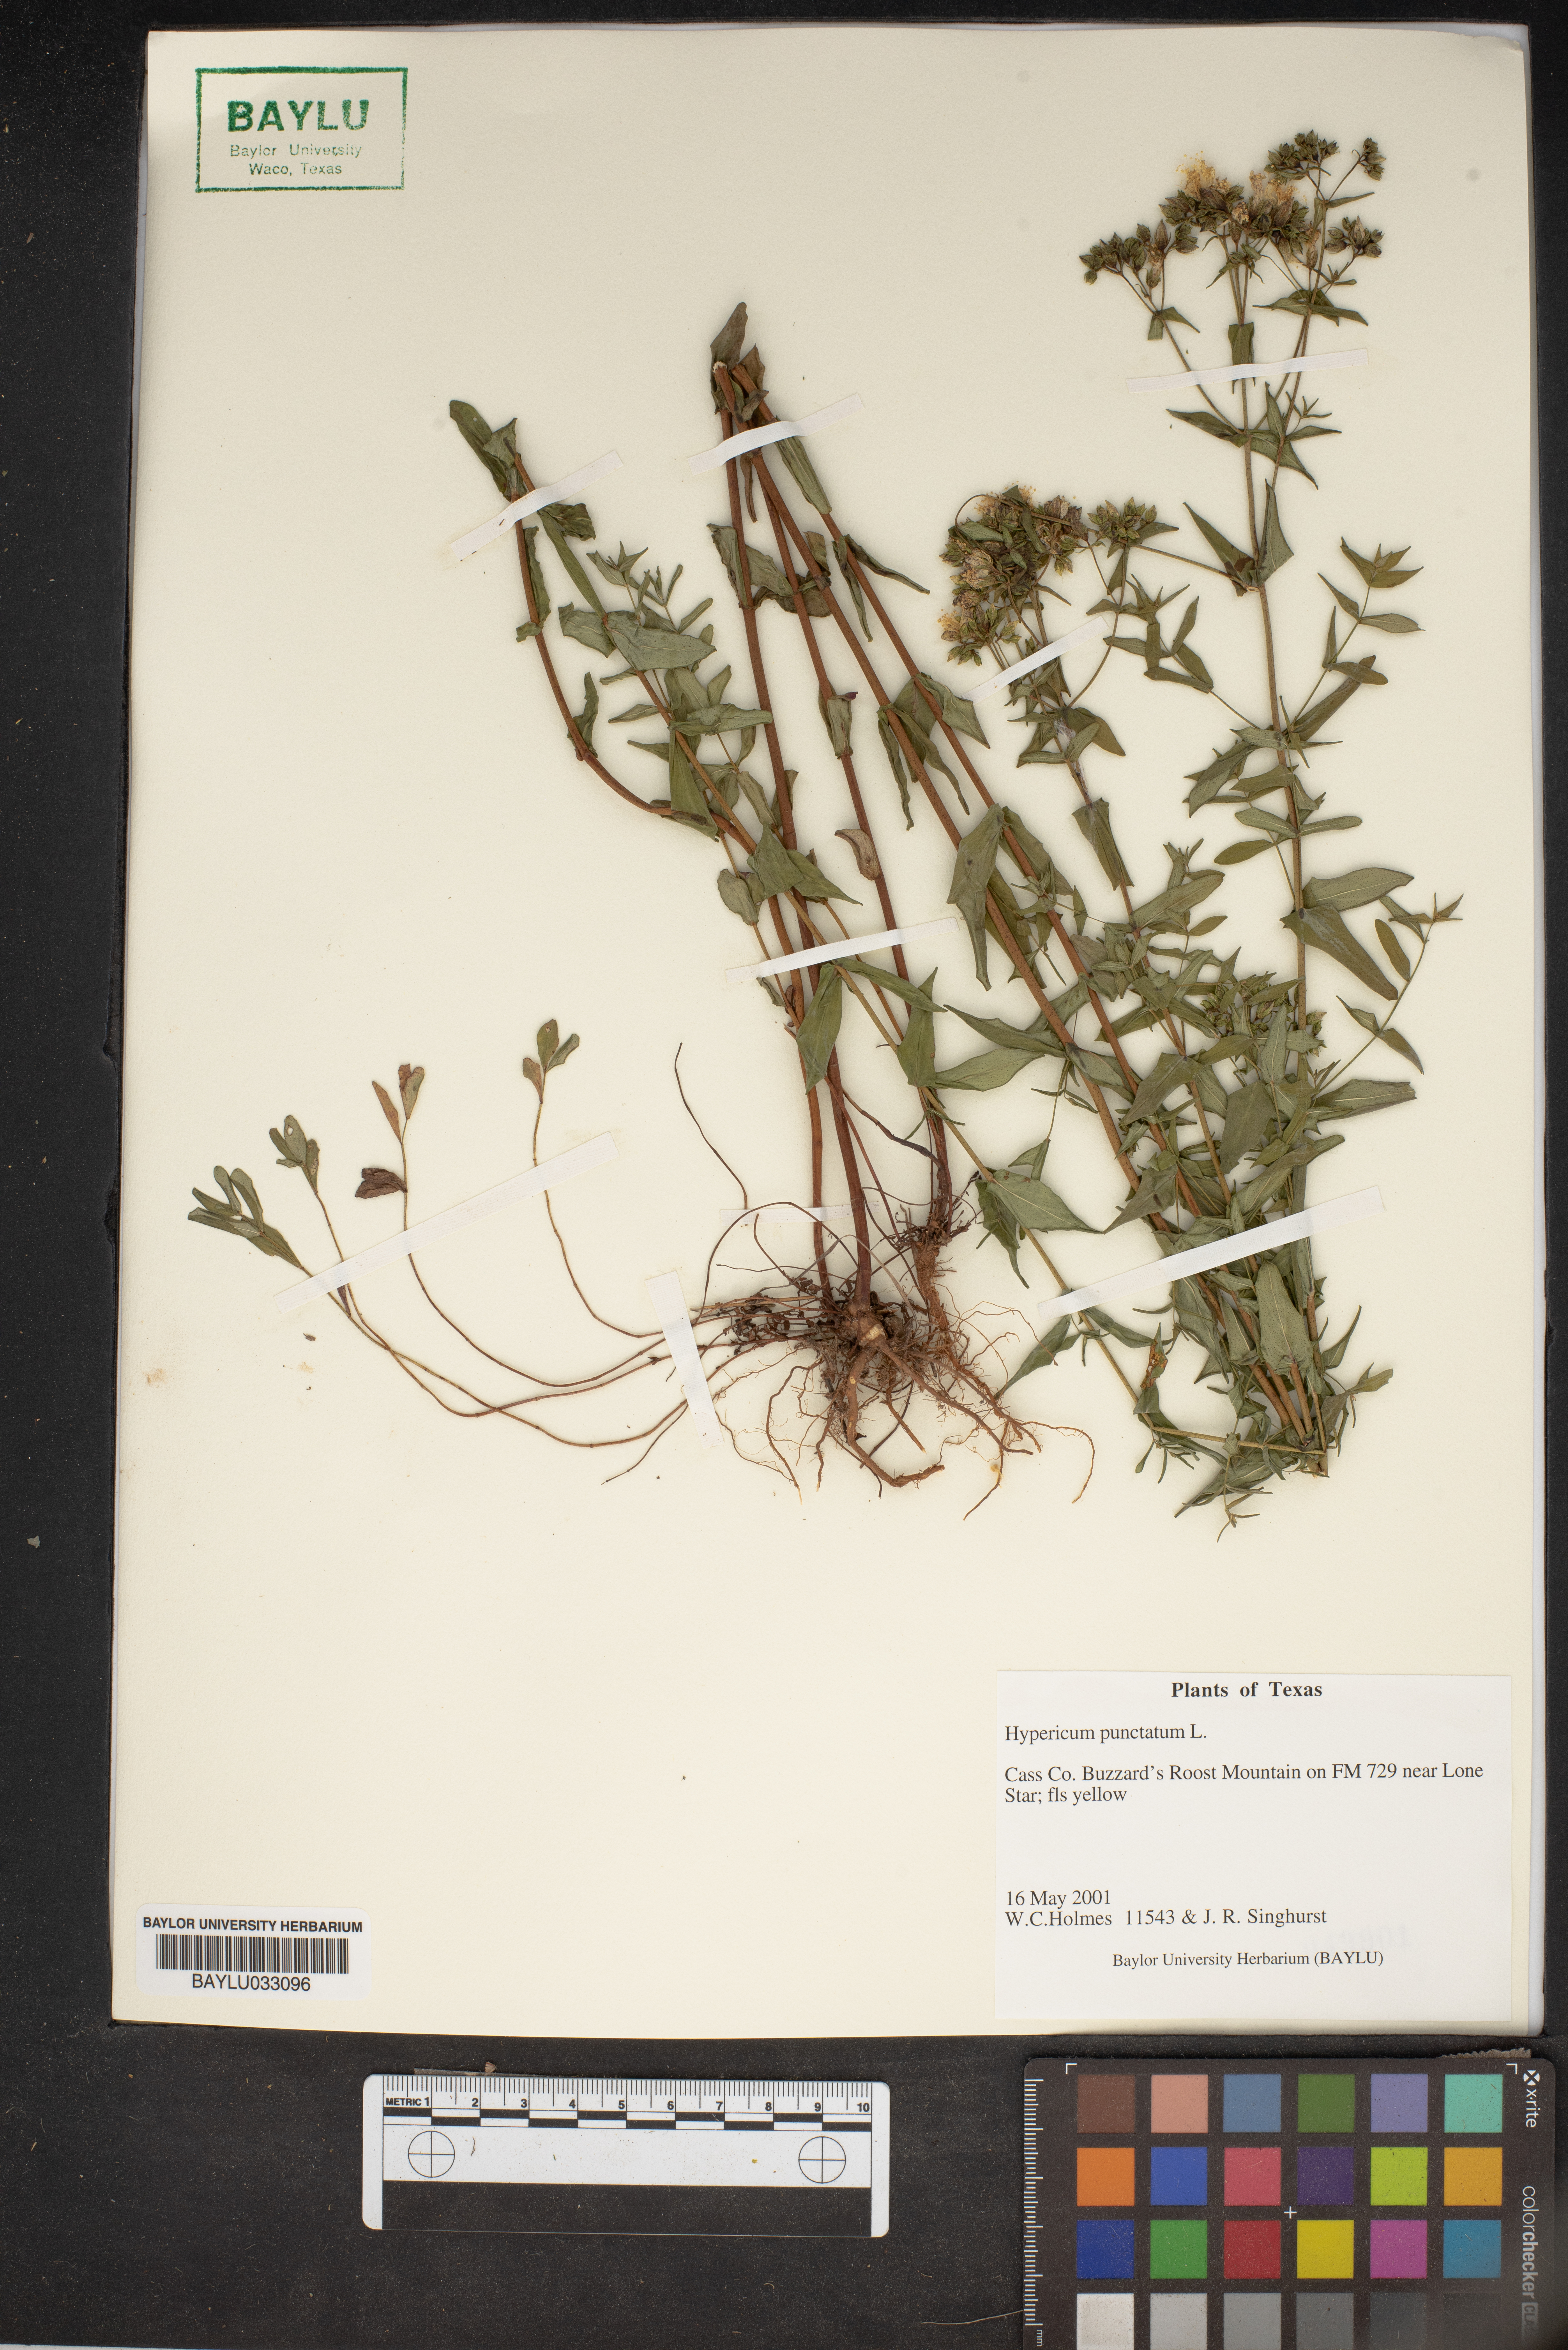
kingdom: Plantae
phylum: Tracheophyta
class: Magnoliopsida
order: Malpighiales
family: Hypericaceae
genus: Hypericum
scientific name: Hypericum punctatum
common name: Spotted st. john's-wort
